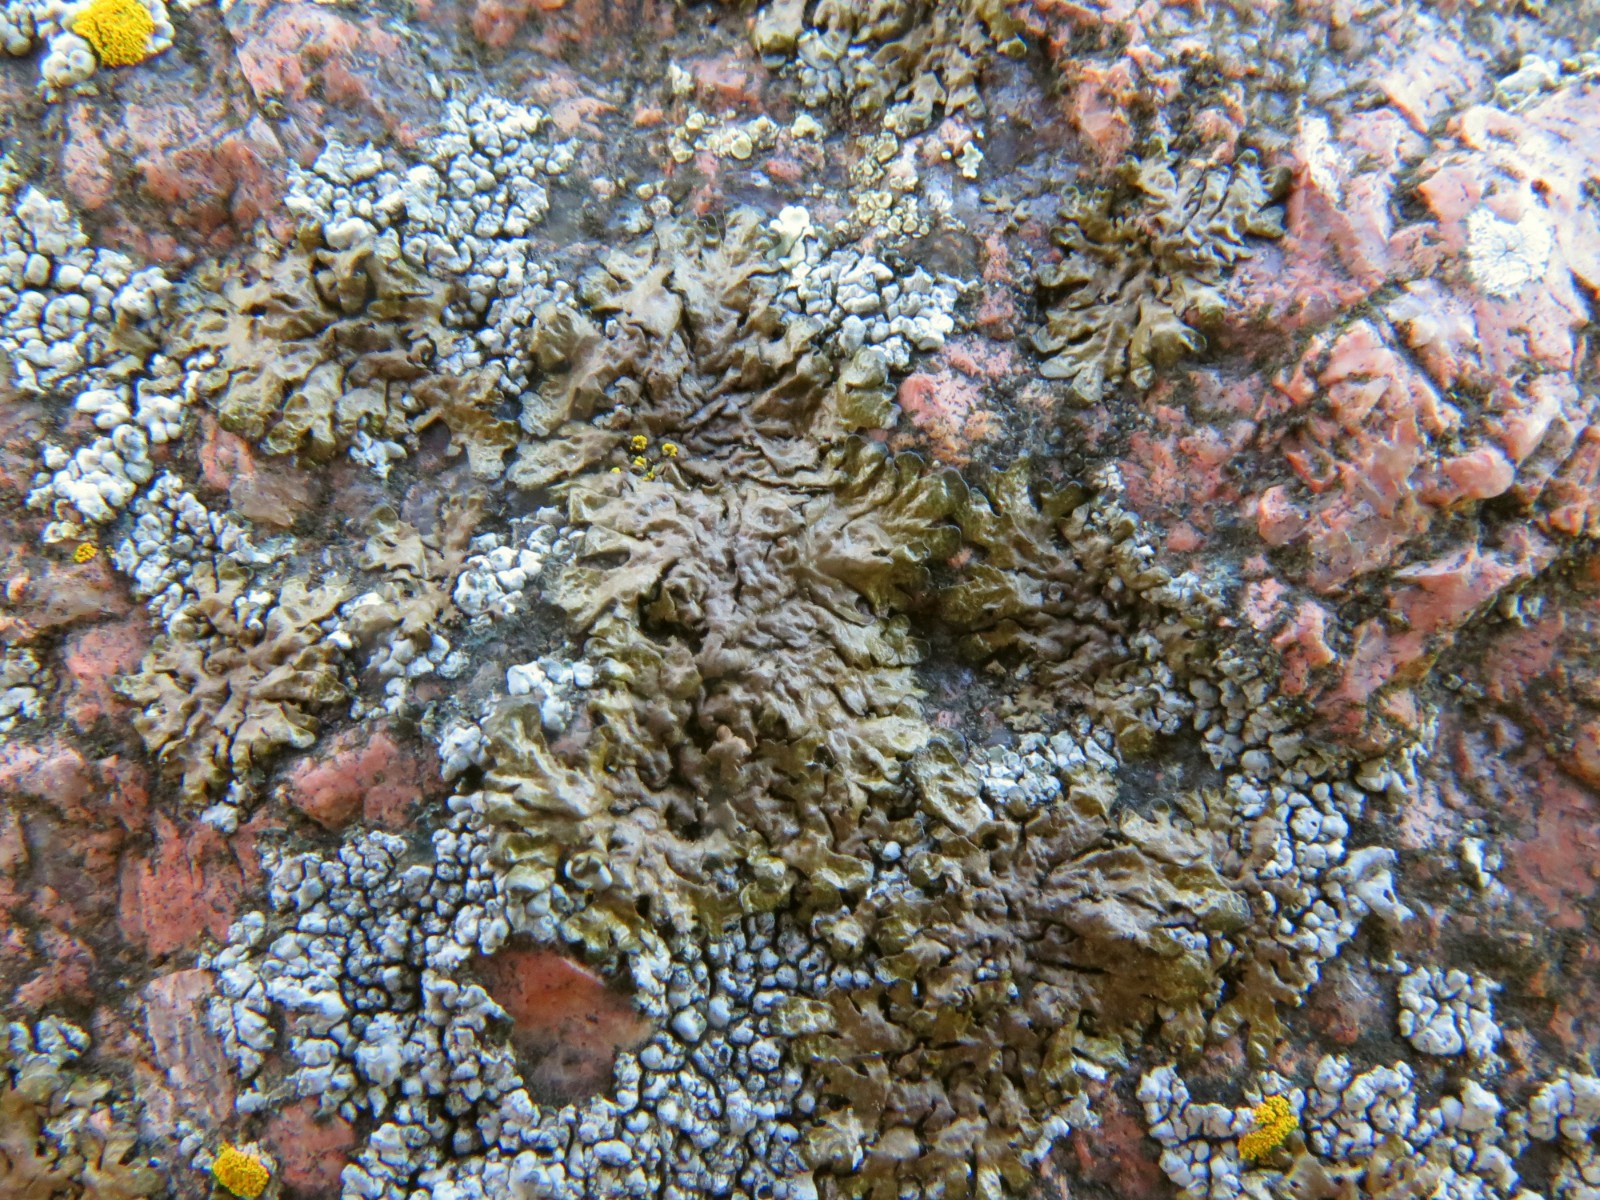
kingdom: Fungi
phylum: Ascomycota
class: Lecanoromycetes
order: Lecanorales
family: Parmeliaceae
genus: Xanthoparmelia
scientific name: Xanthoparmelia
